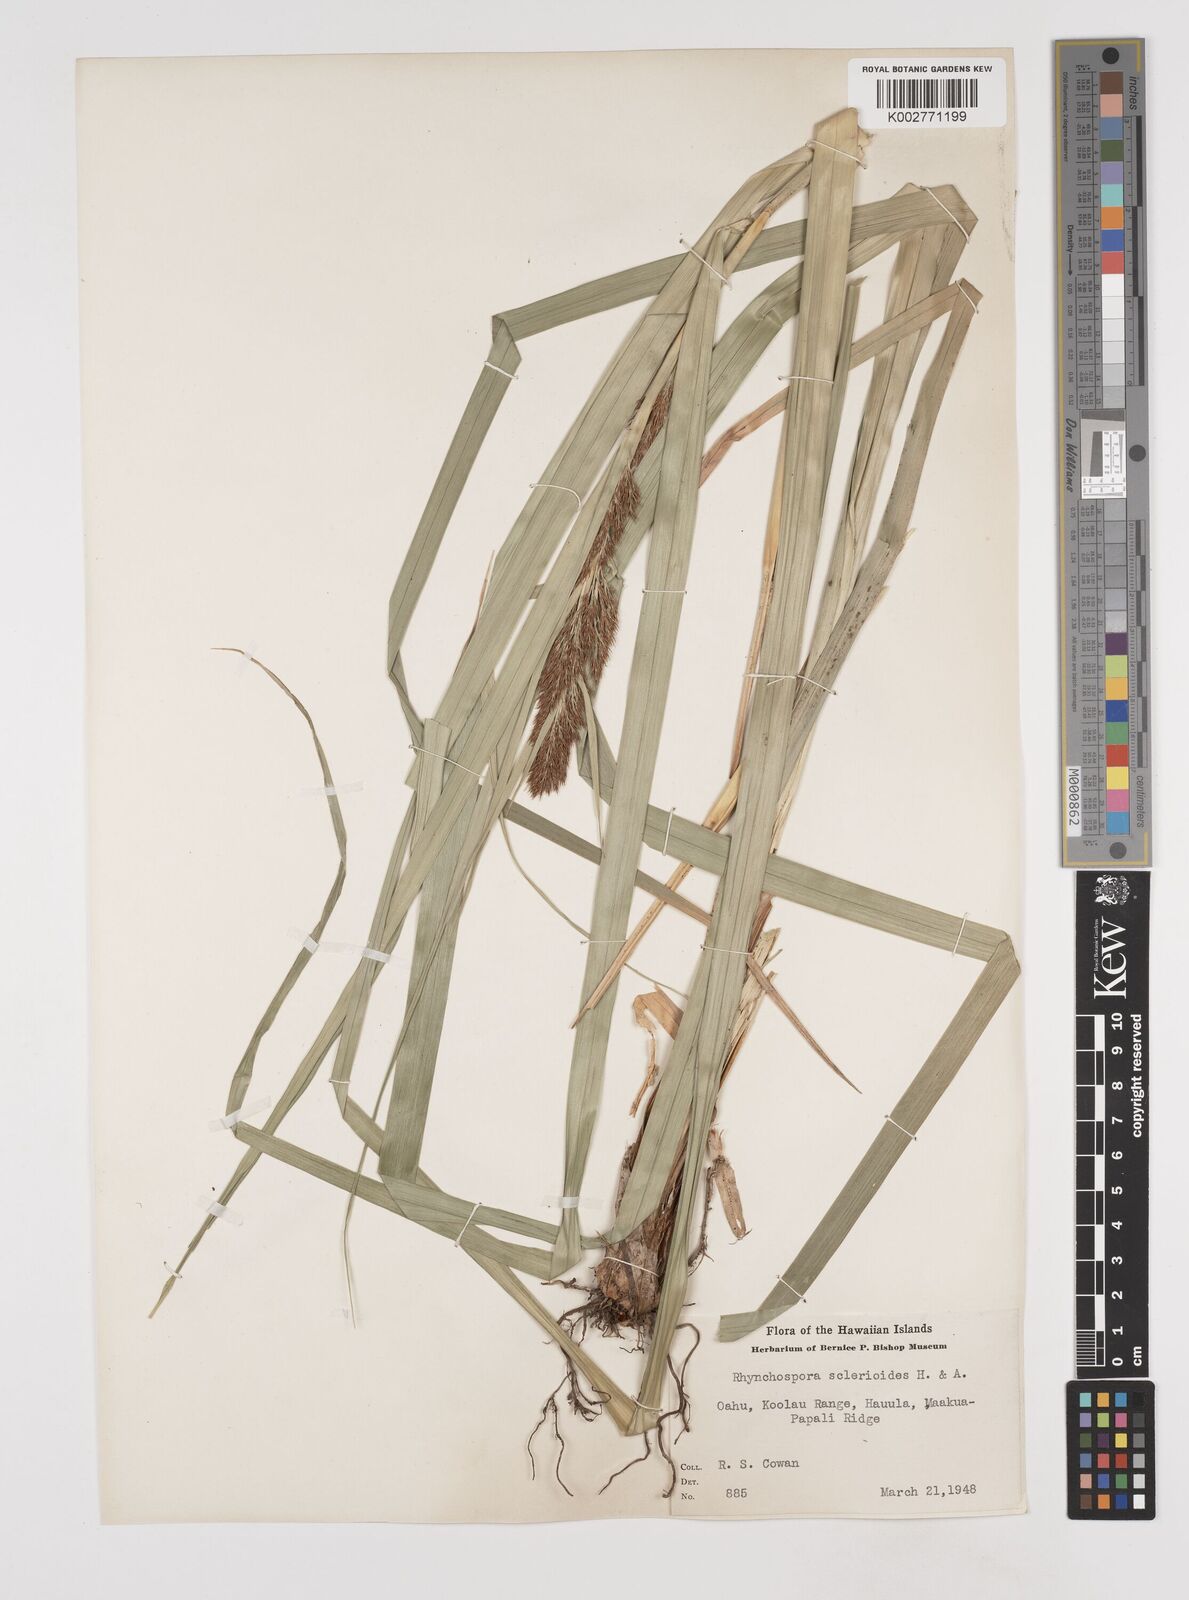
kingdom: Plantae
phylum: Tracheophyta
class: Liliopsida
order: Poales
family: Cyperaceae
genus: Rhynchospora
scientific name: Rhynchospora sclerioides
